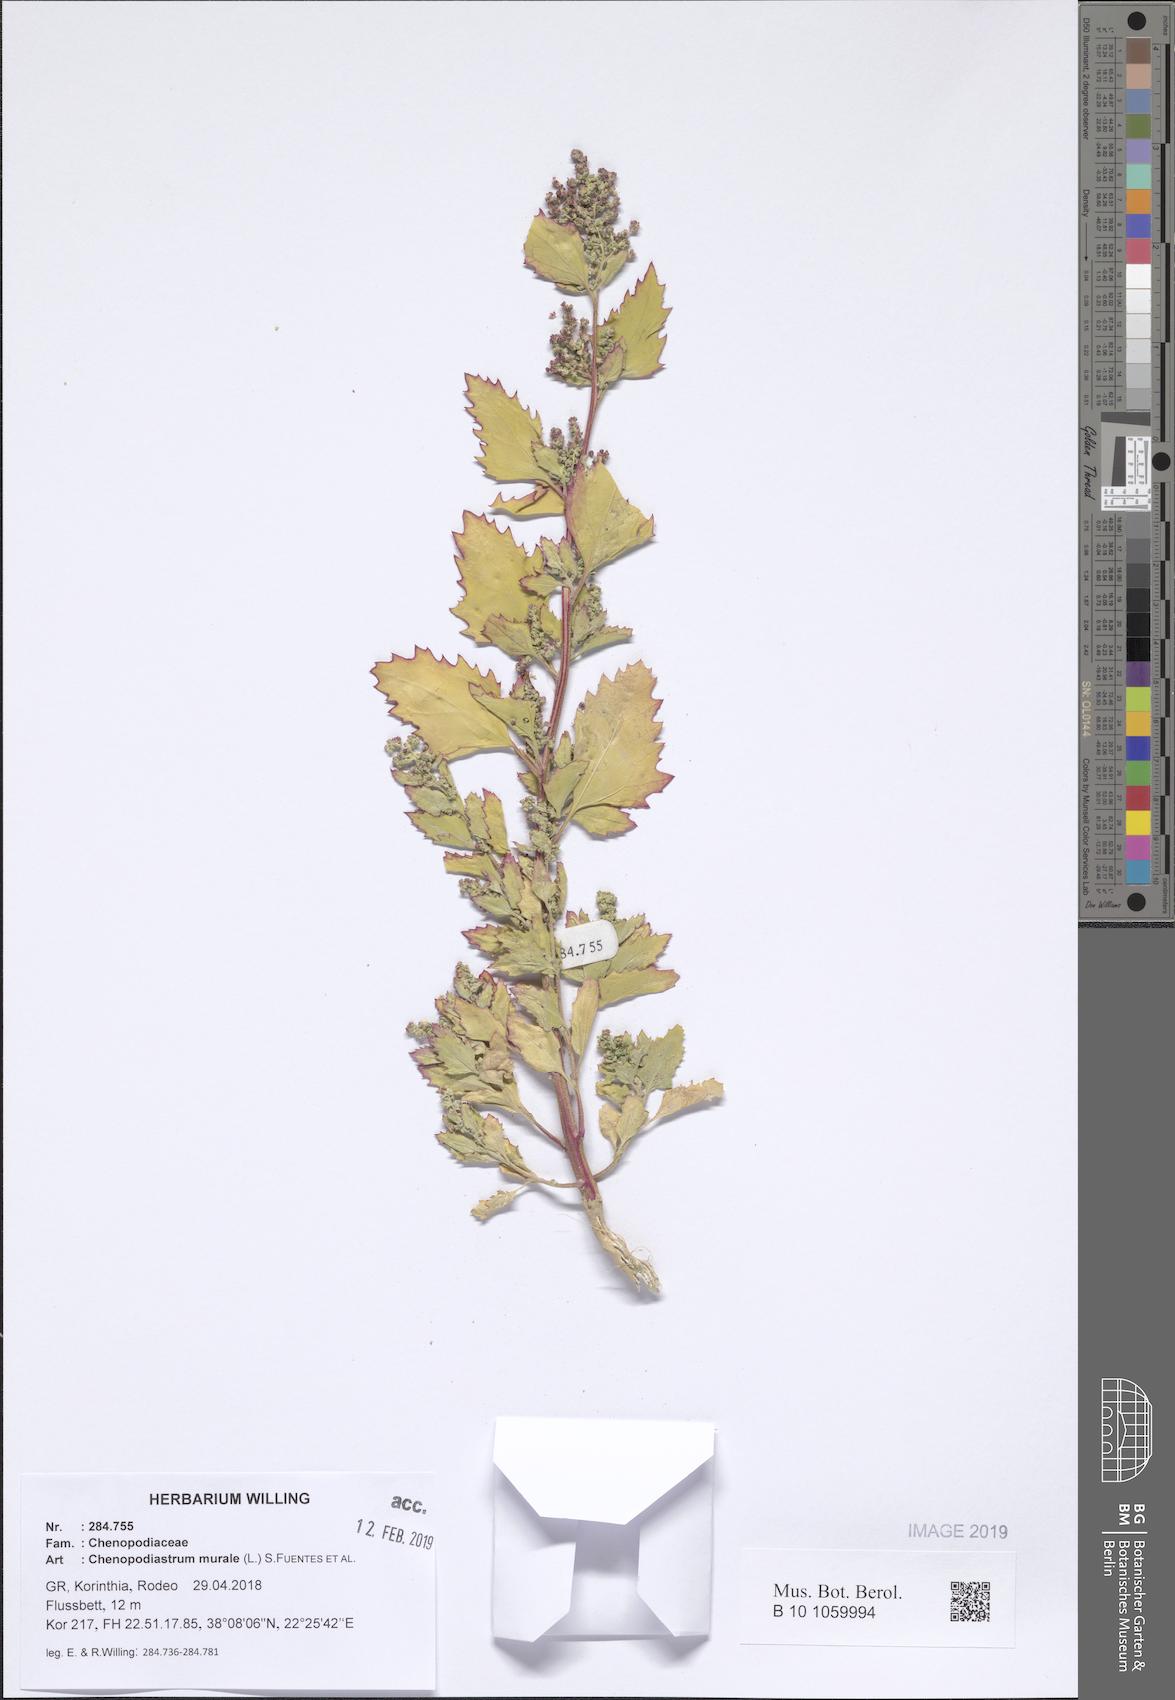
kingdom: Plantae
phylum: Tracheophyta
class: Magnoliopsida
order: Caryophyllales
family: Amaranthaceae
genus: Chenopodiastrum
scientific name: Chenopodiastrum murale
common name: Sowbane
